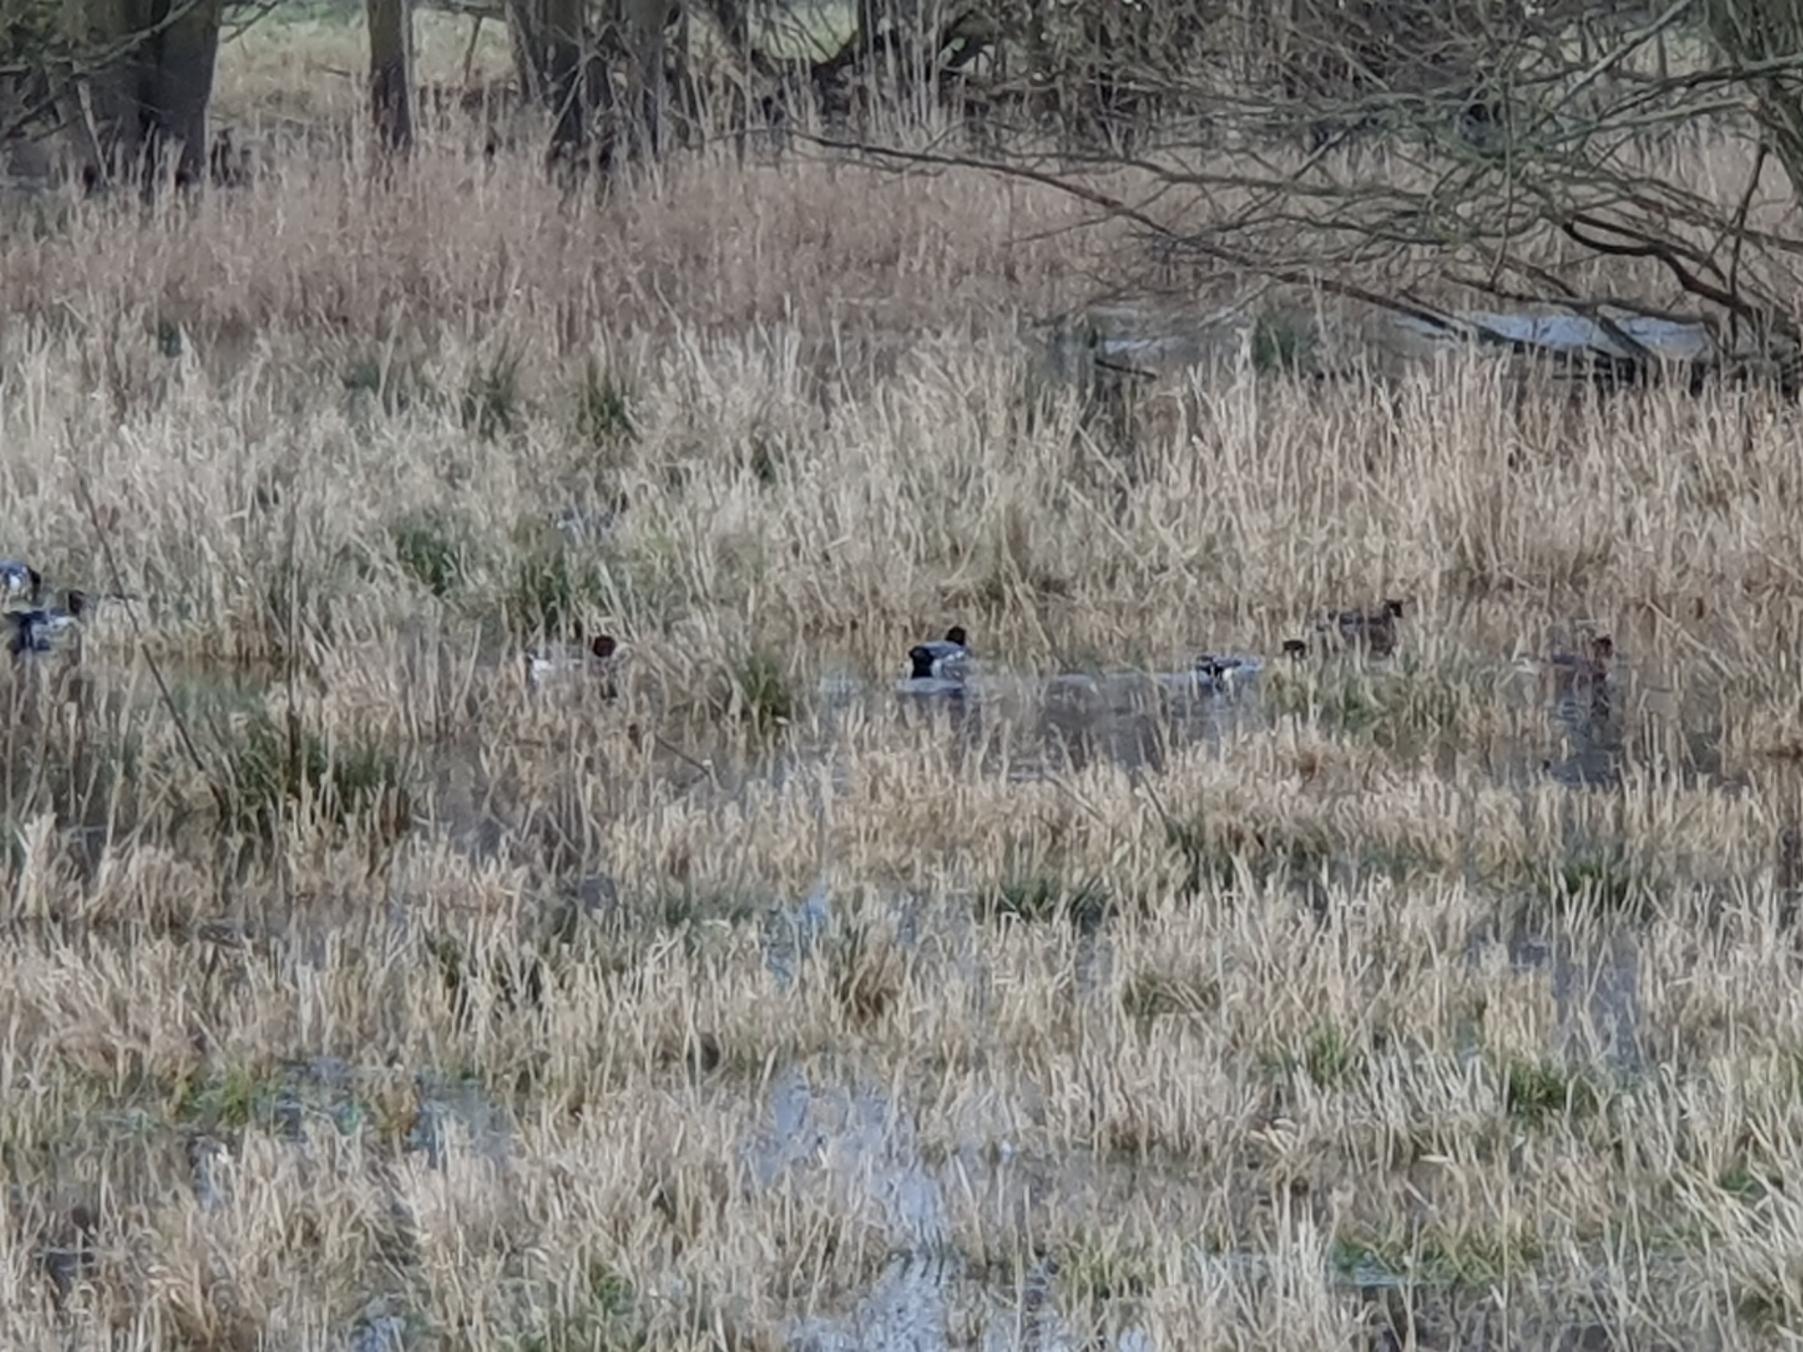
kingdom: Animalia
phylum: Chordata
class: Aves
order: Anseriformes
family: Anatidae
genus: Mareca
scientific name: Mareca penelope
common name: Pibeand
